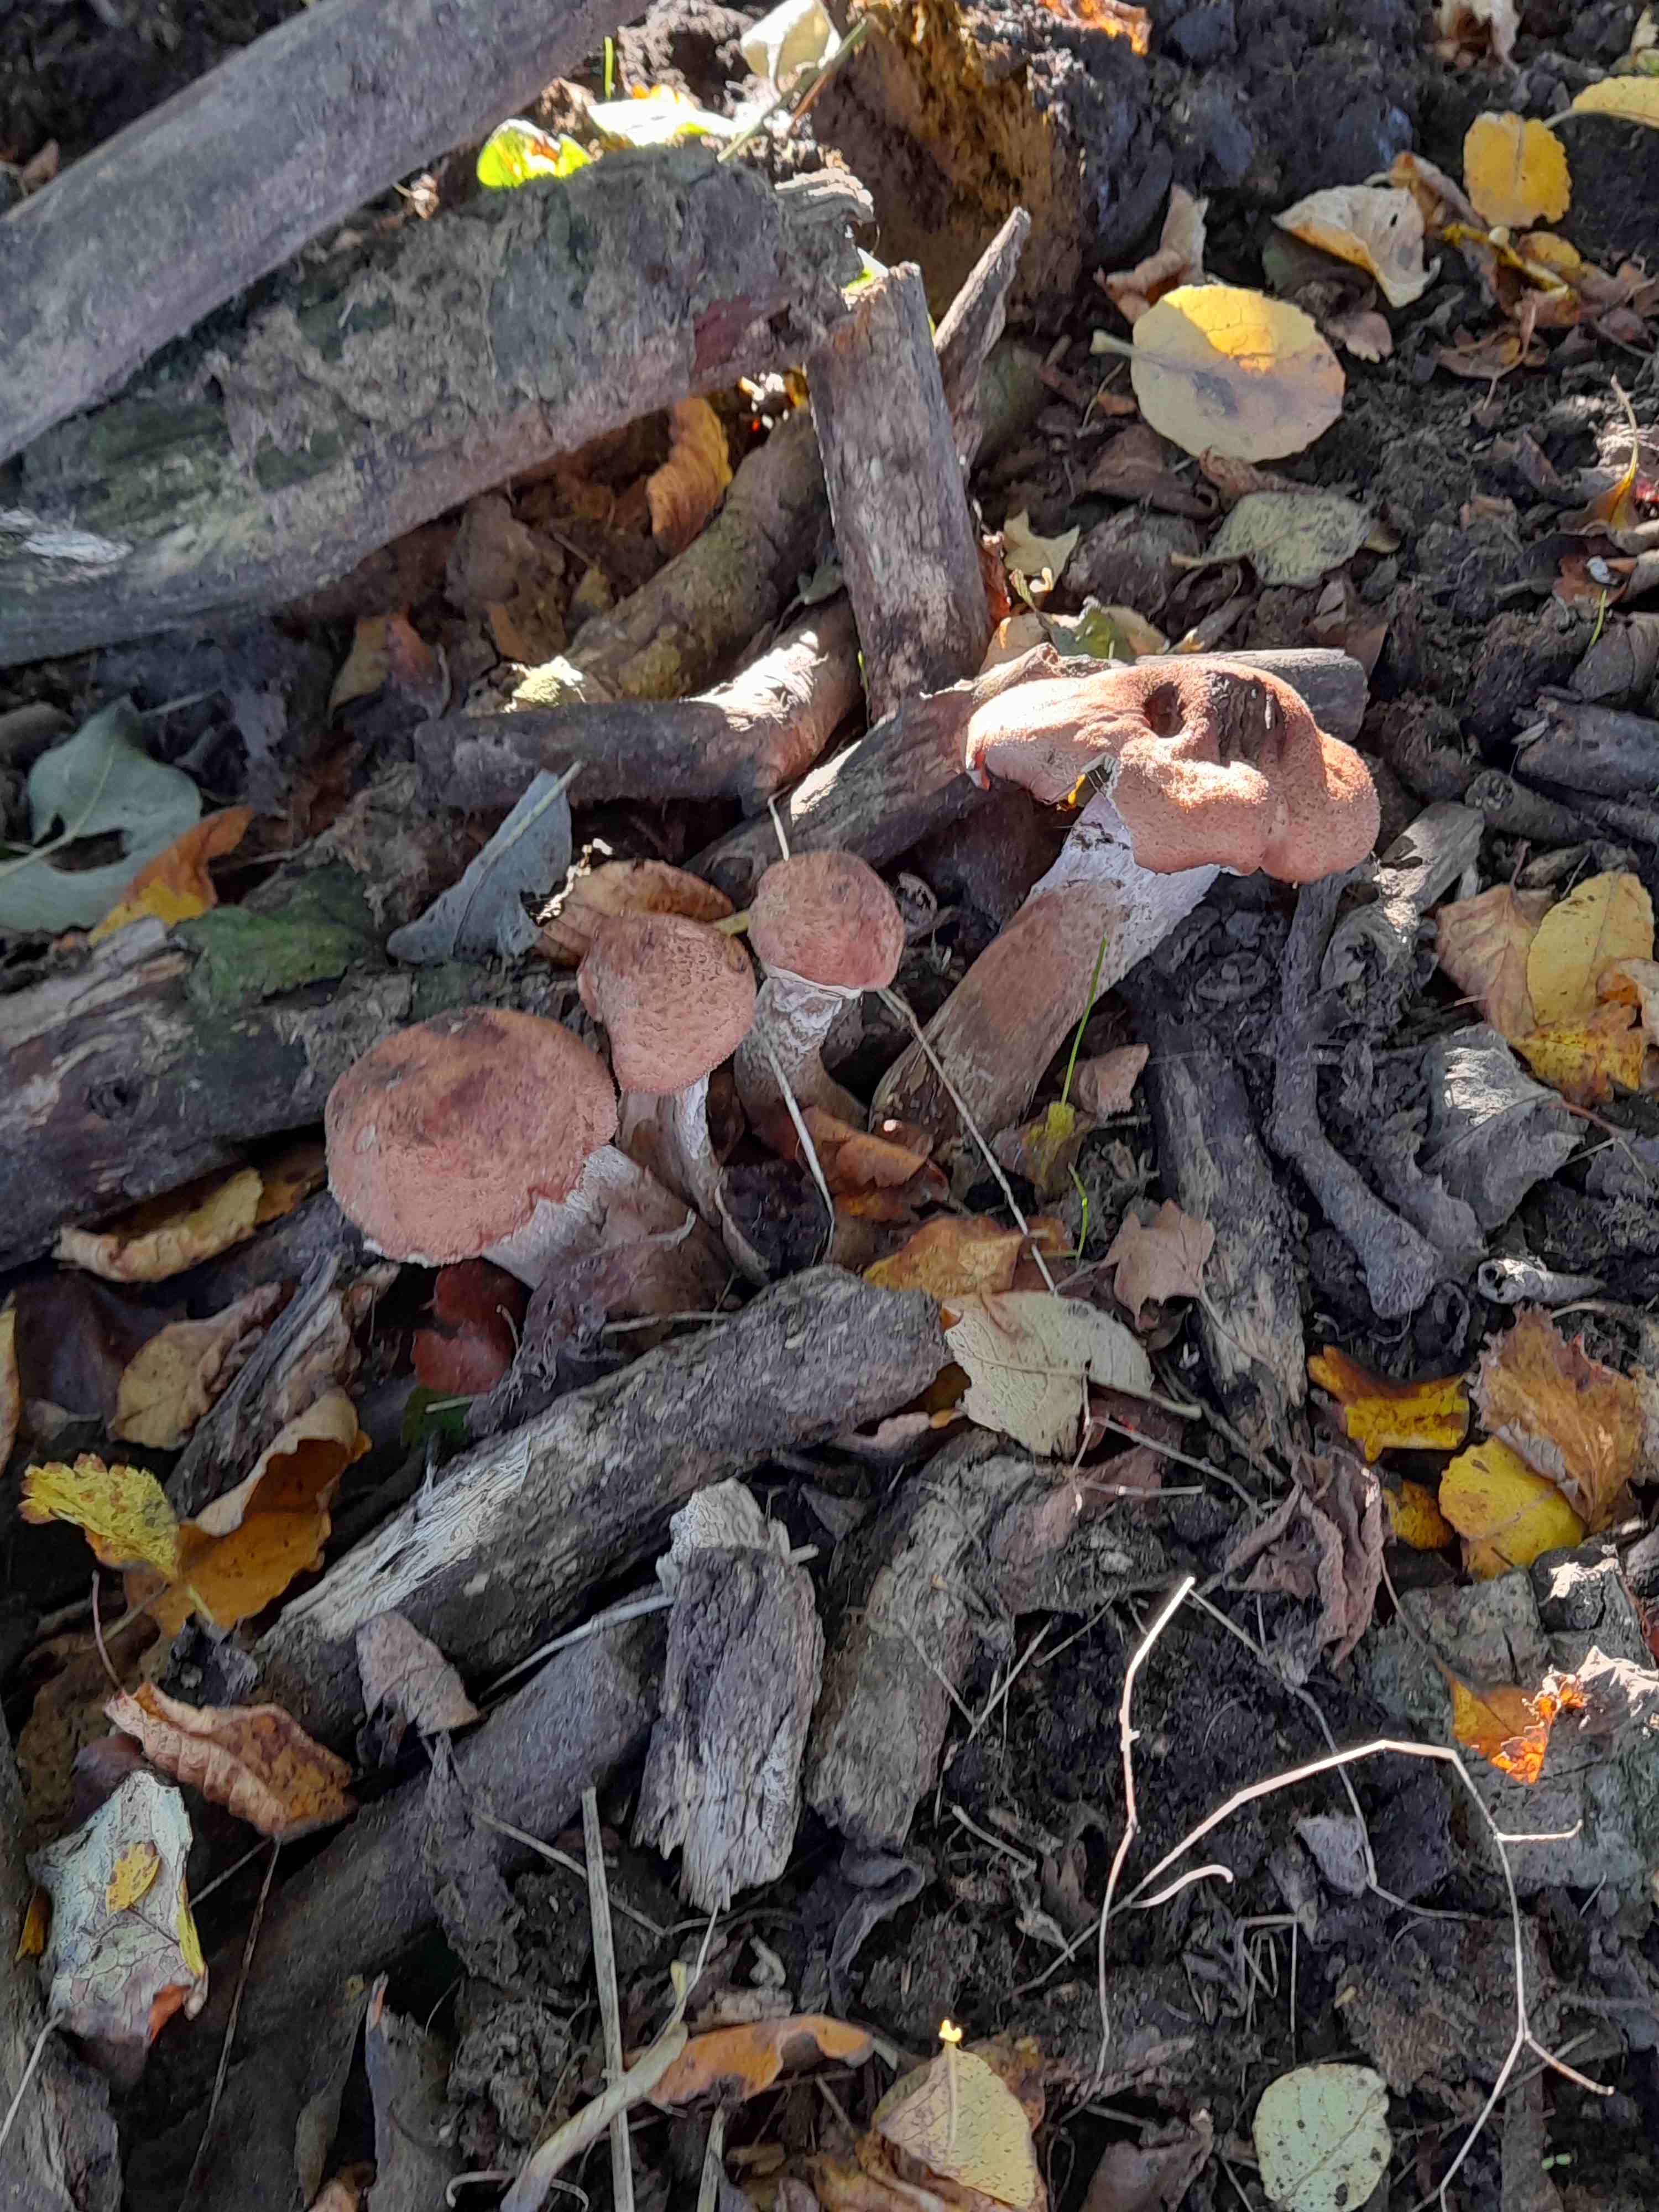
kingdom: Fungi
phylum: Basidiomycota
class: Agaricomycetes
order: Agaricales
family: Physalacriaceae
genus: Armillaria
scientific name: Armillaria
